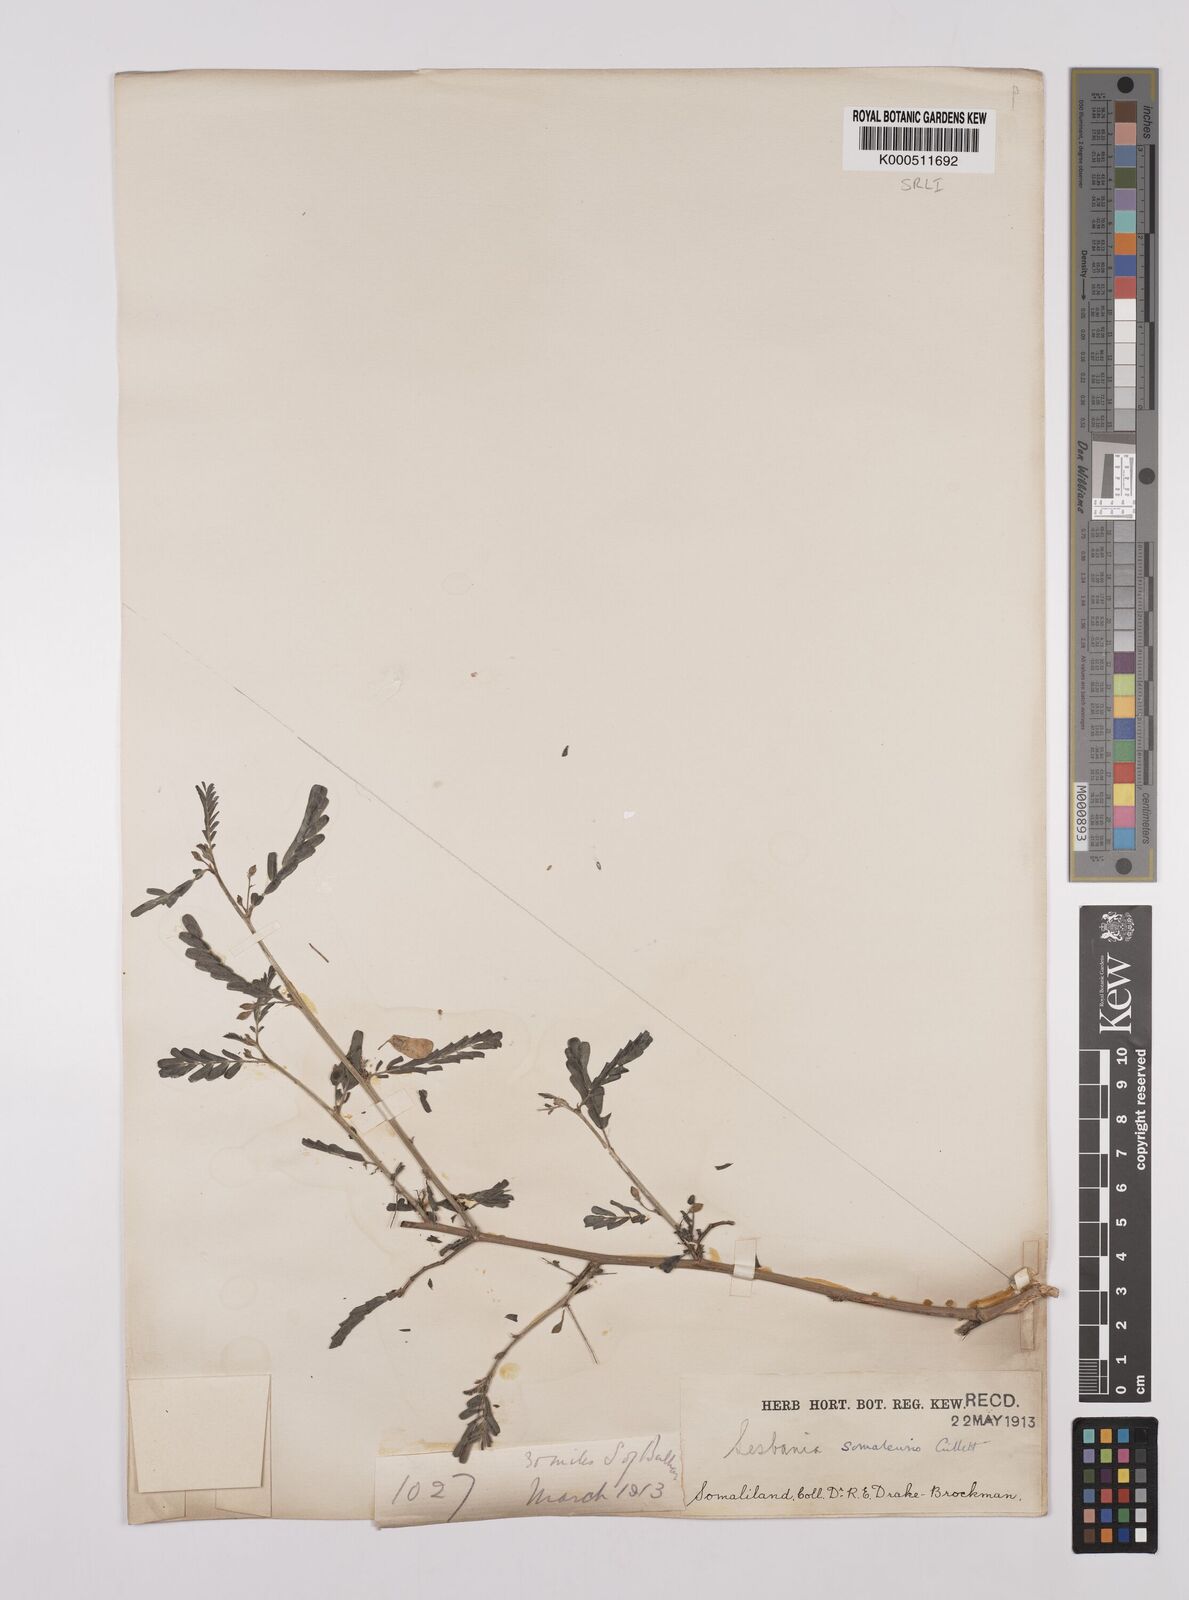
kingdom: Plantae
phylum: Tracheophyta
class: Magnoliopsida
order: Fabales
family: Fabaceae
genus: Sesbania
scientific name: Sesbania somalensis
